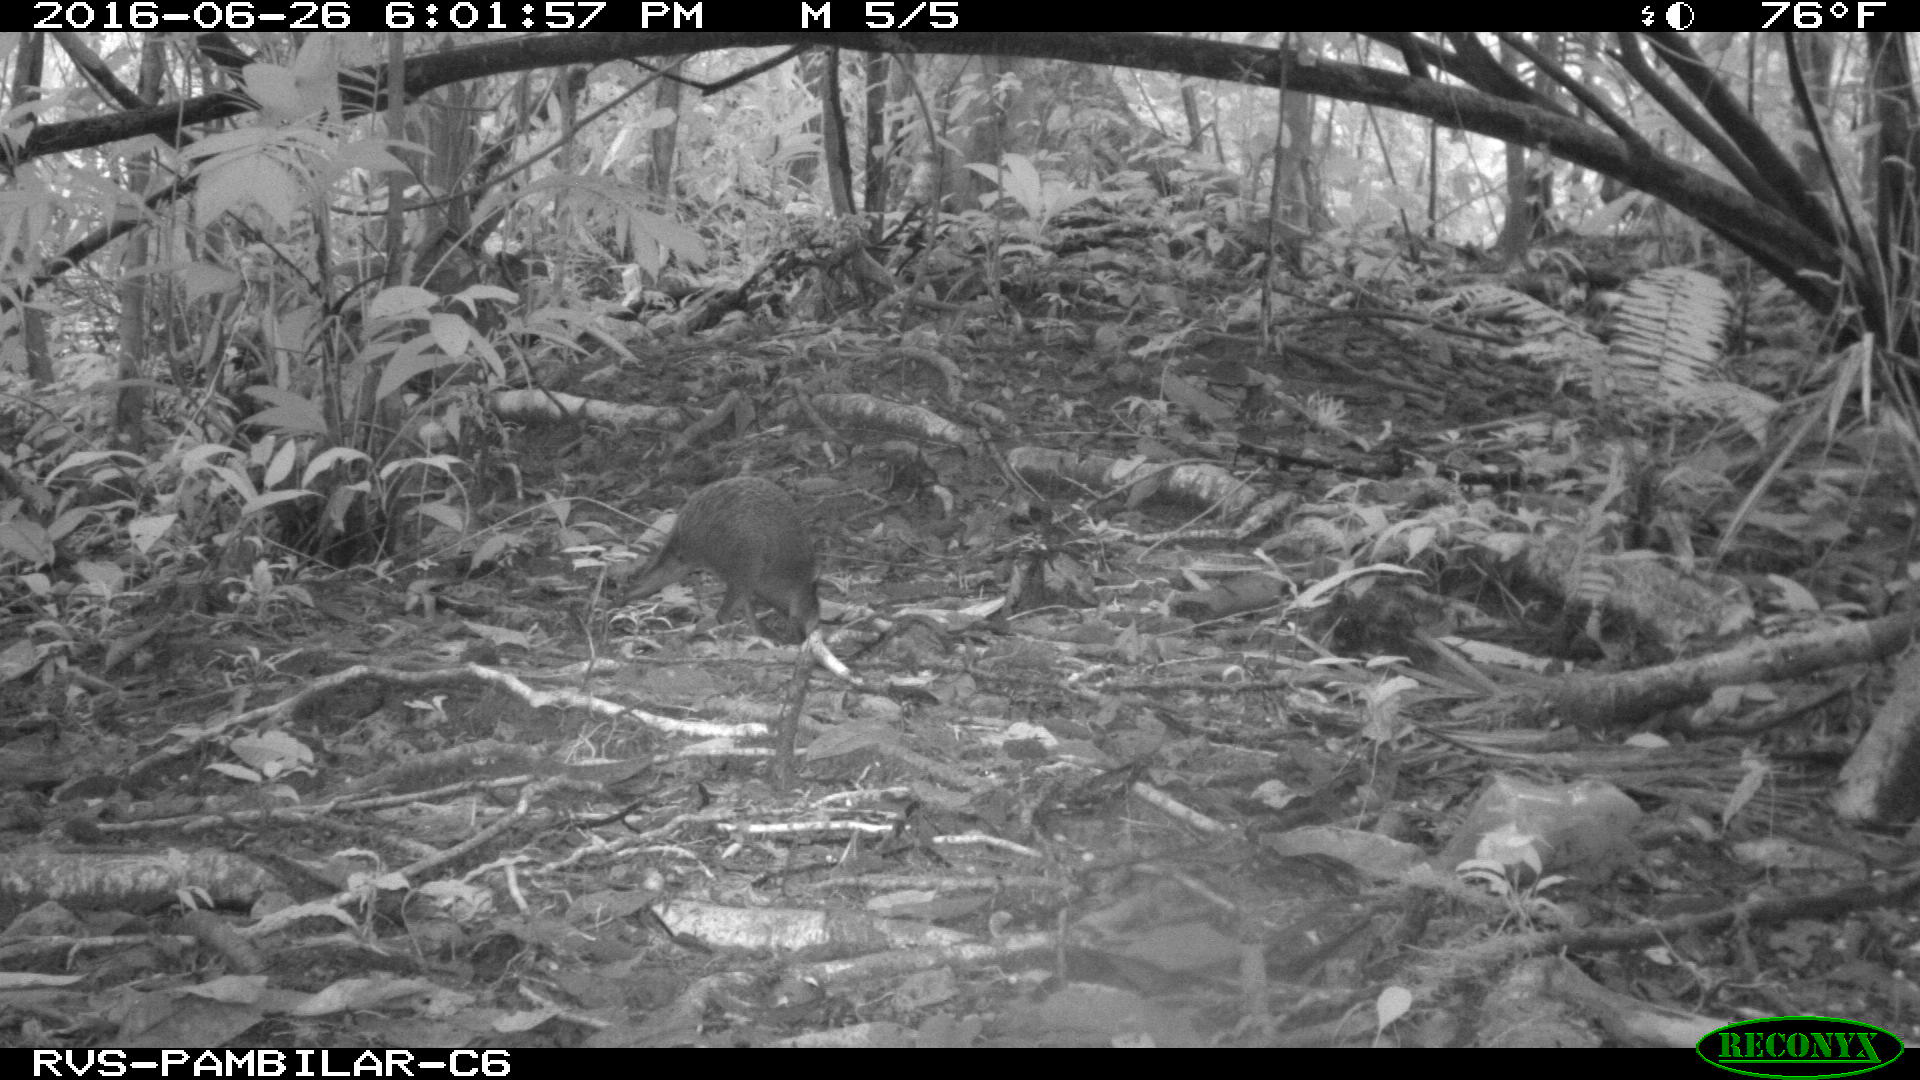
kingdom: Animalia
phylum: Chordata
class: Mammalia
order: Rodentia
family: Dasyproctidae
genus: Dasyprocta
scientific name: Dasyprocta punctata
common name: Central american agouti
